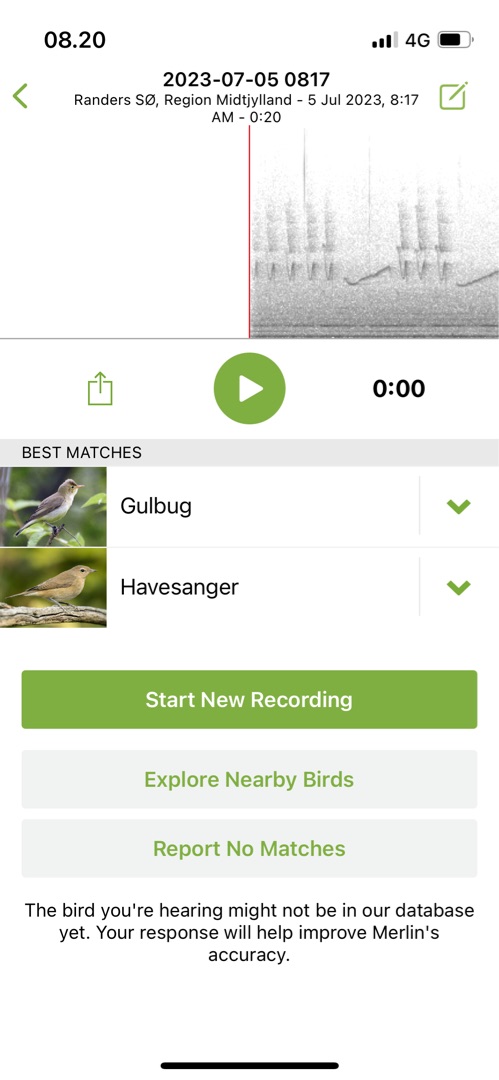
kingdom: Animalia
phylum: Chordata
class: Aves
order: Passeriformes
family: Acrocephalidae
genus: Hippolais
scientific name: Hippolais icterina
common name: Gulbug
